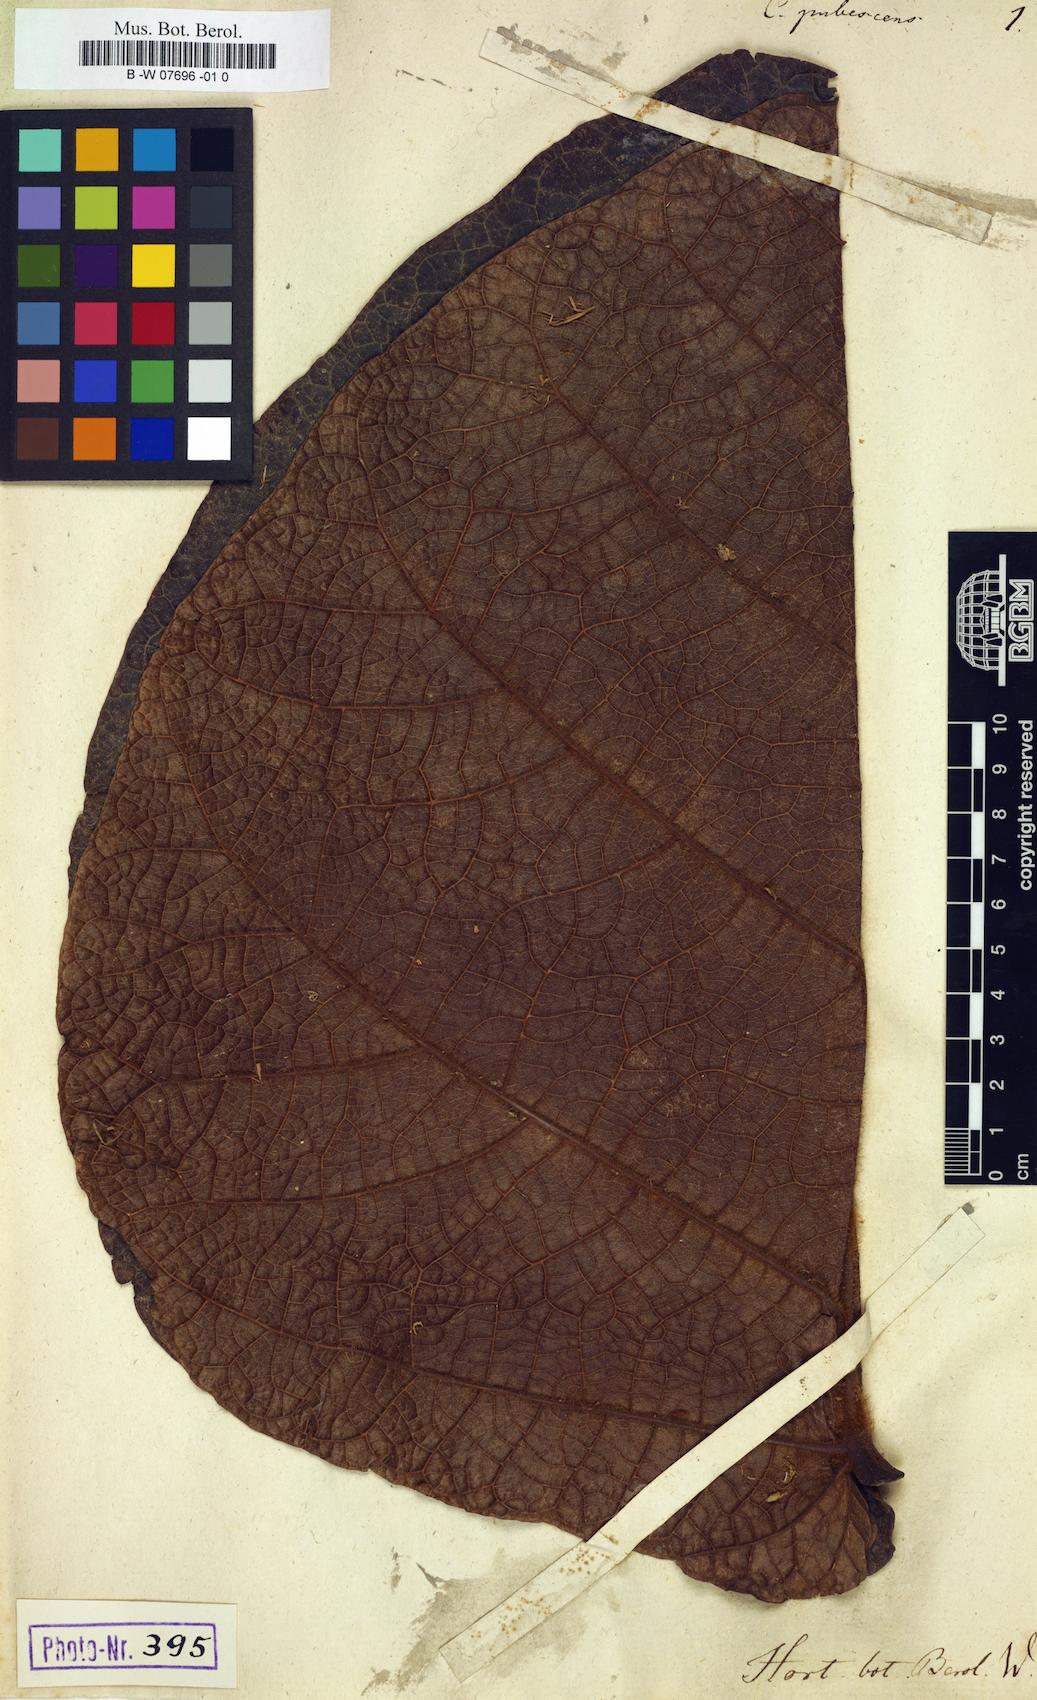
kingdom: Plantae
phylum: Tracheophyta
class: Magnoliopsida
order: Caryophyllales
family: Polygonaceae
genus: Coccoloba
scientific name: Coccoloba pubescens
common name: Mountain-grape
